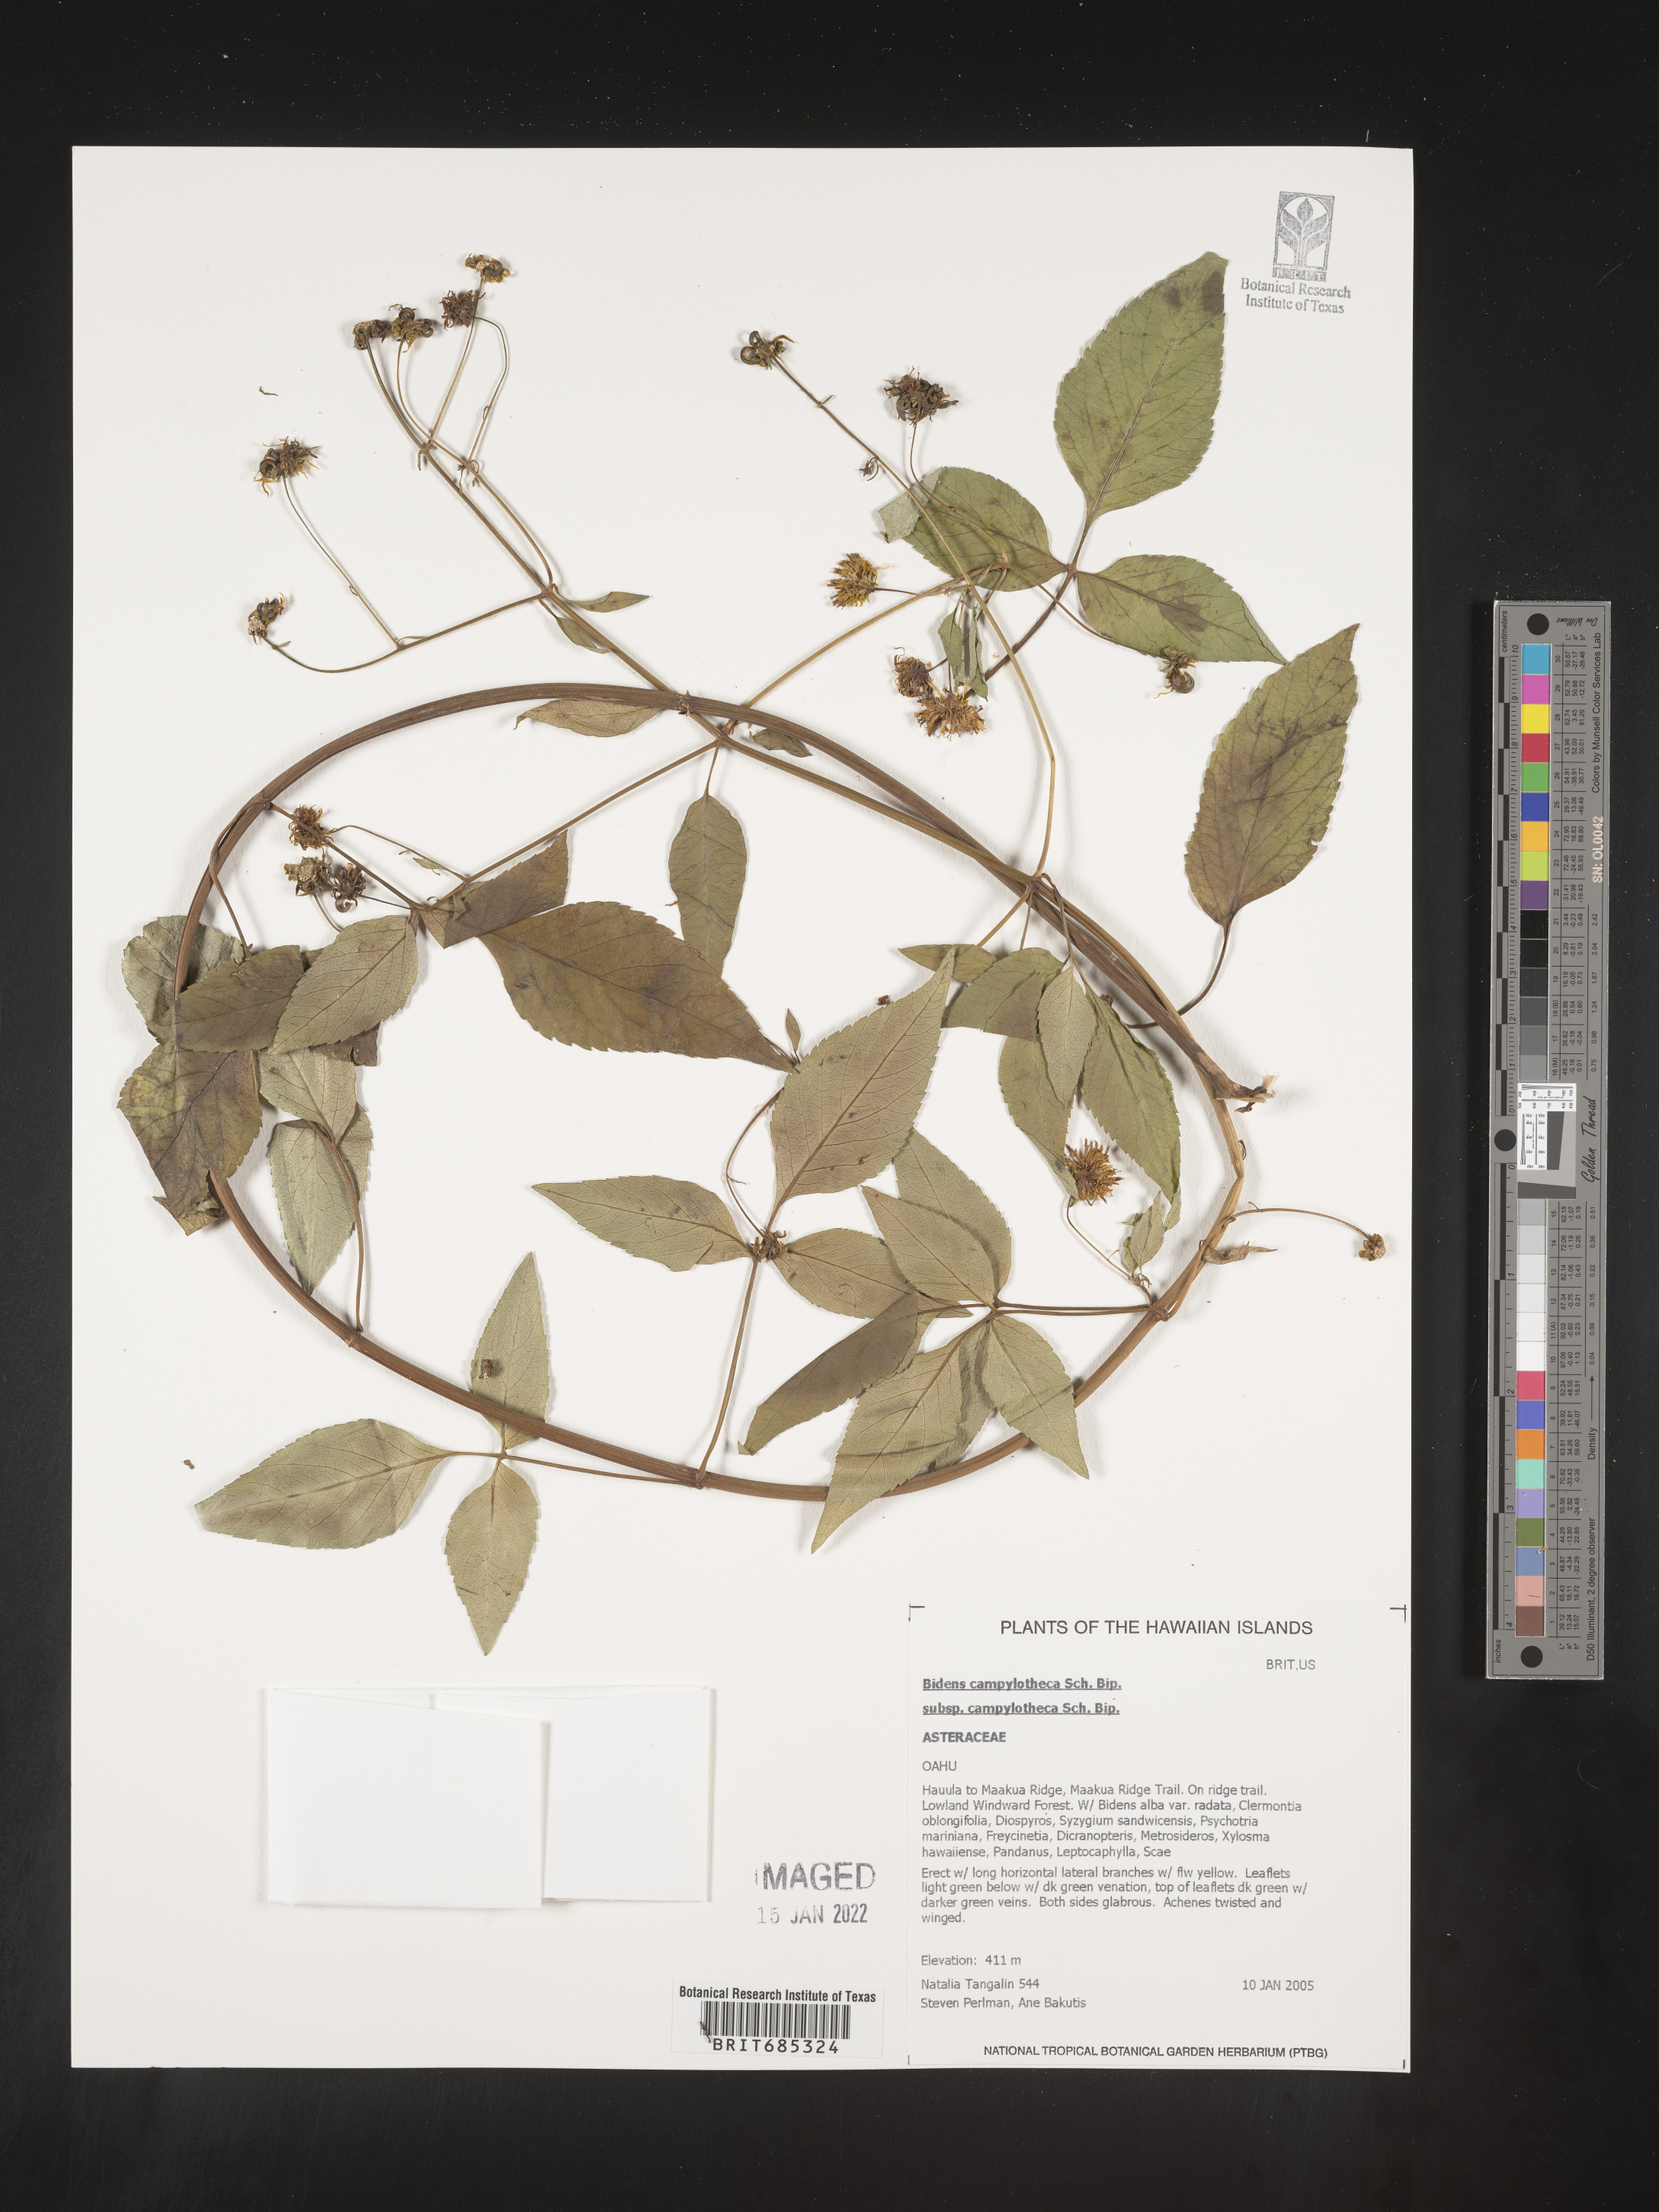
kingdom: Plantae
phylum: Tracheophyta
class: Magnoliopsida
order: Asterales
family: Asteraceae
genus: Bidens
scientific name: Bidens
